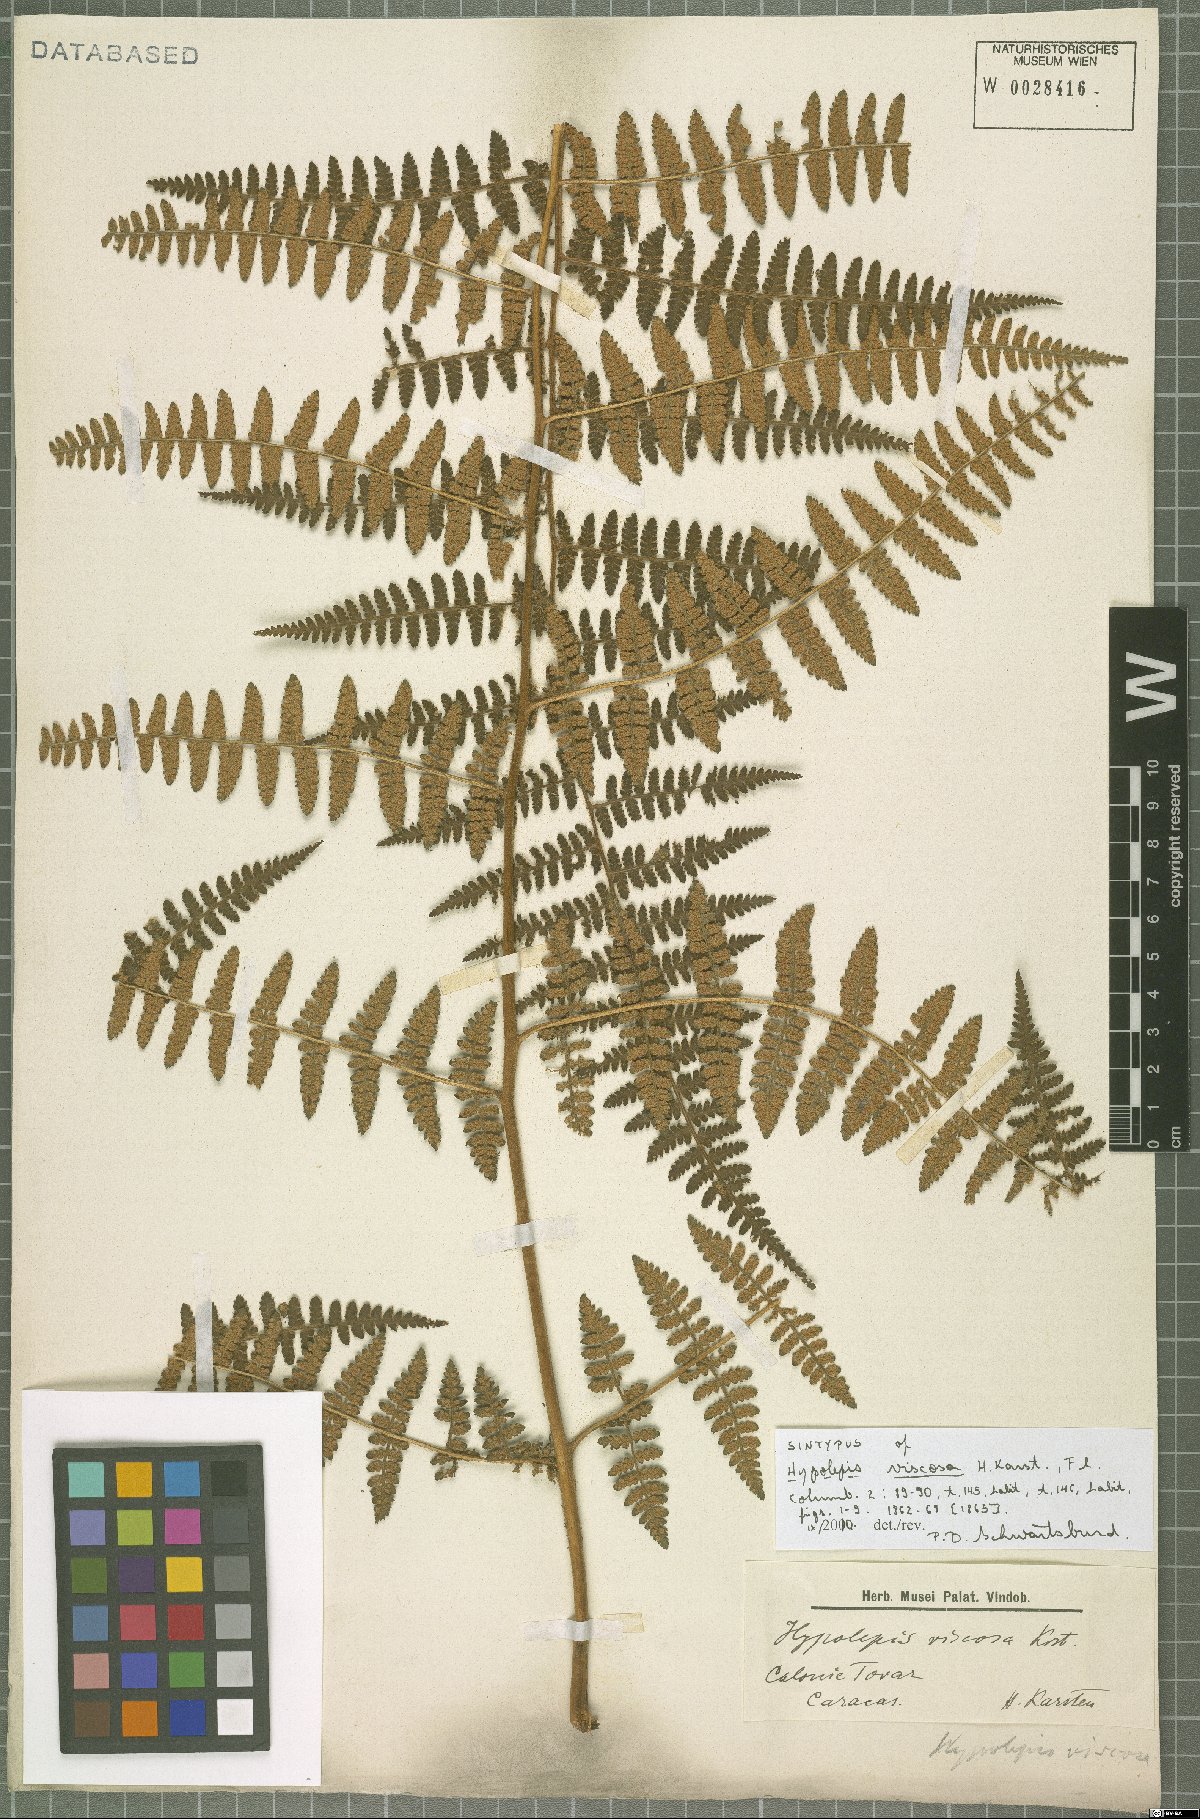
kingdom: Plantae
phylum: Tracheophyta
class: Polypodiopsida
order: Polypodiales
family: Dennstaedtiaceae
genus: Hypolepis
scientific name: Hypolepis viscosa
